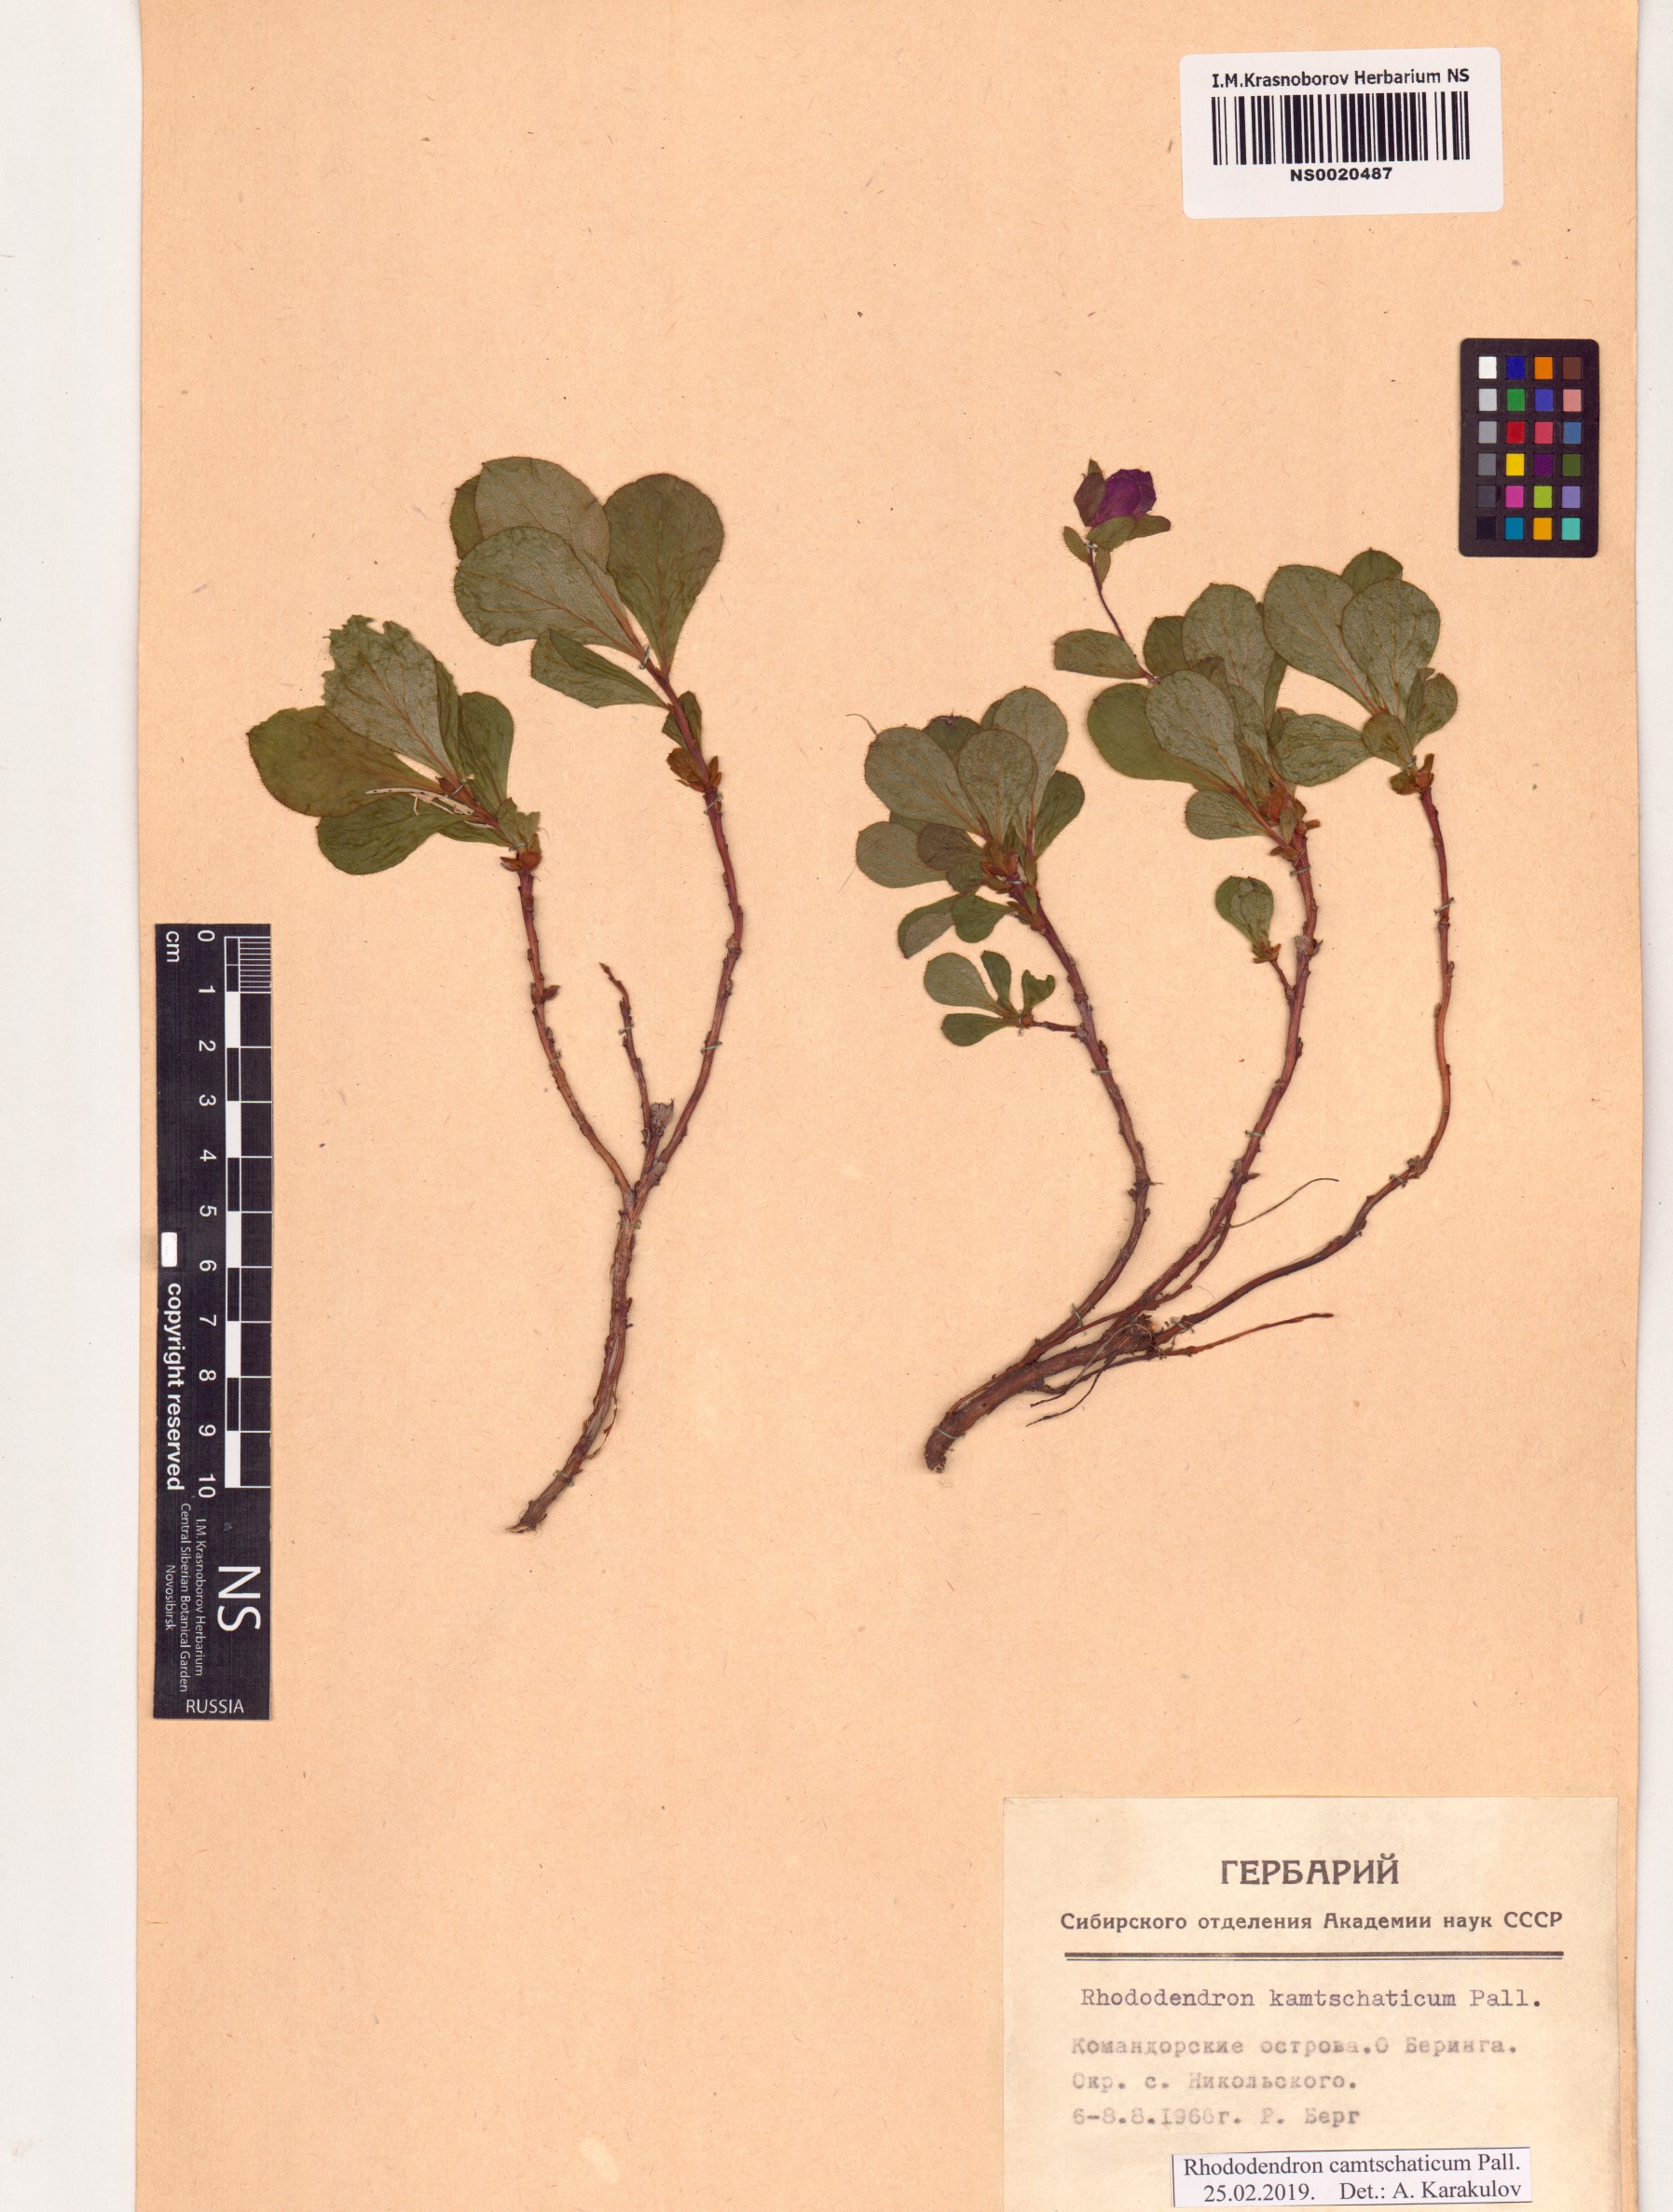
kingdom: Plantae
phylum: Tracheophyta
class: Magnoliopsida
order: Ericales
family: Ericaceae
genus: Rhododendron
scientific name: Rhododendron camtschaticum
